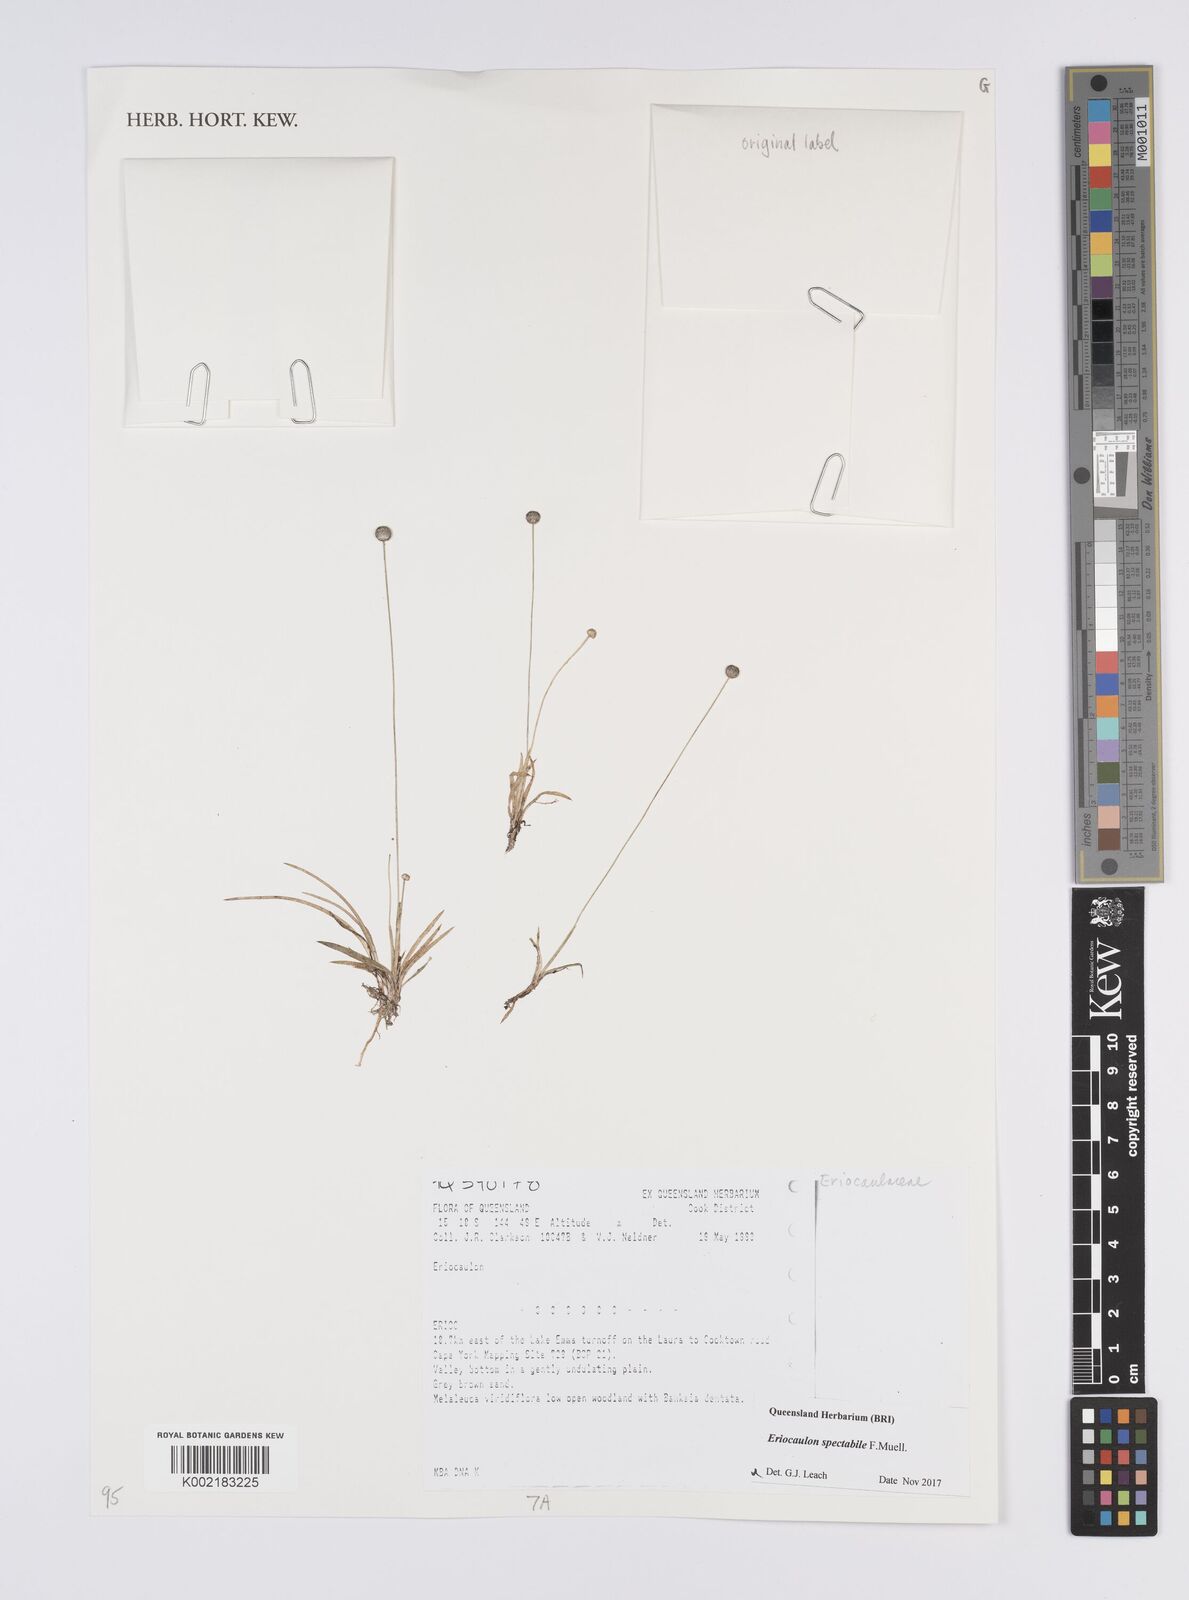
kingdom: Plantae
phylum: Tracheophyta
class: Liliopsida
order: Poales
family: Eriocaulaceae
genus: Eriocaulon
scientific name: Eriocaulon spectabile
